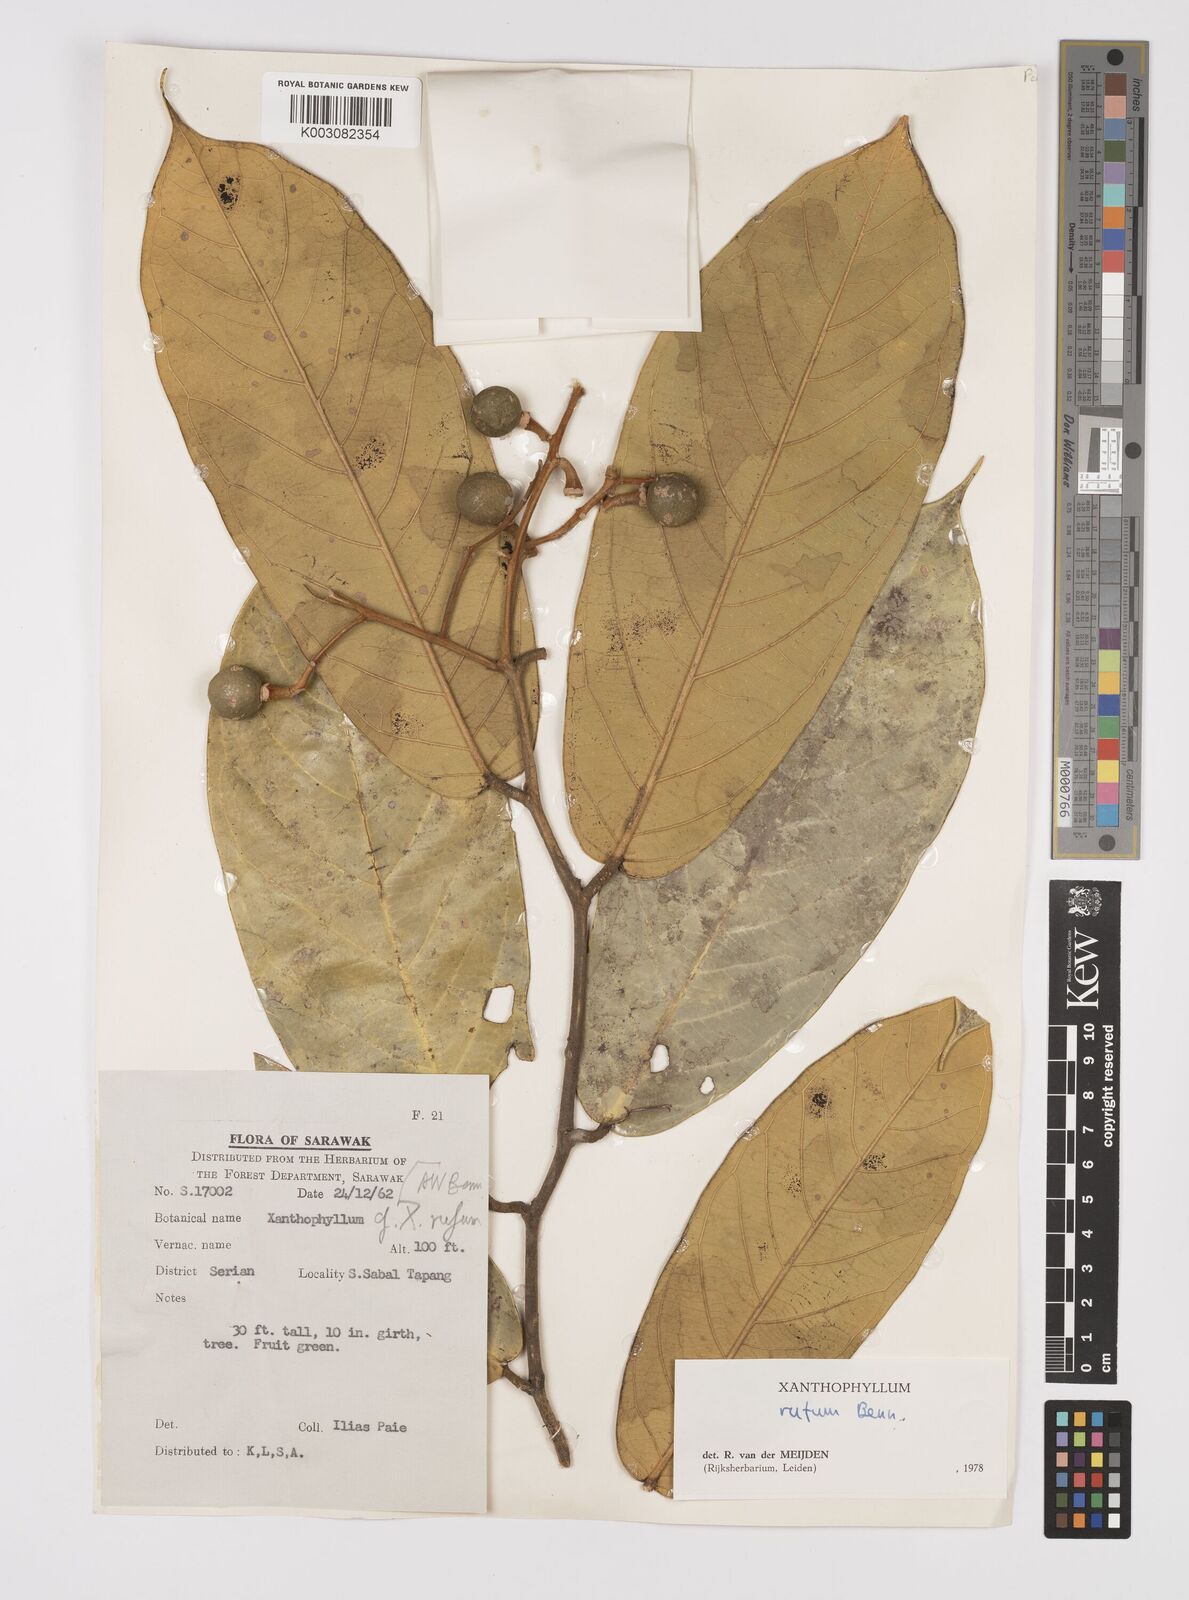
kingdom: Plantae
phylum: Tracheophyta
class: Magnoliopsida
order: Fabales
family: Polygalaceae
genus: Xanthophyllum
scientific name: Xanthophyllum rufum
